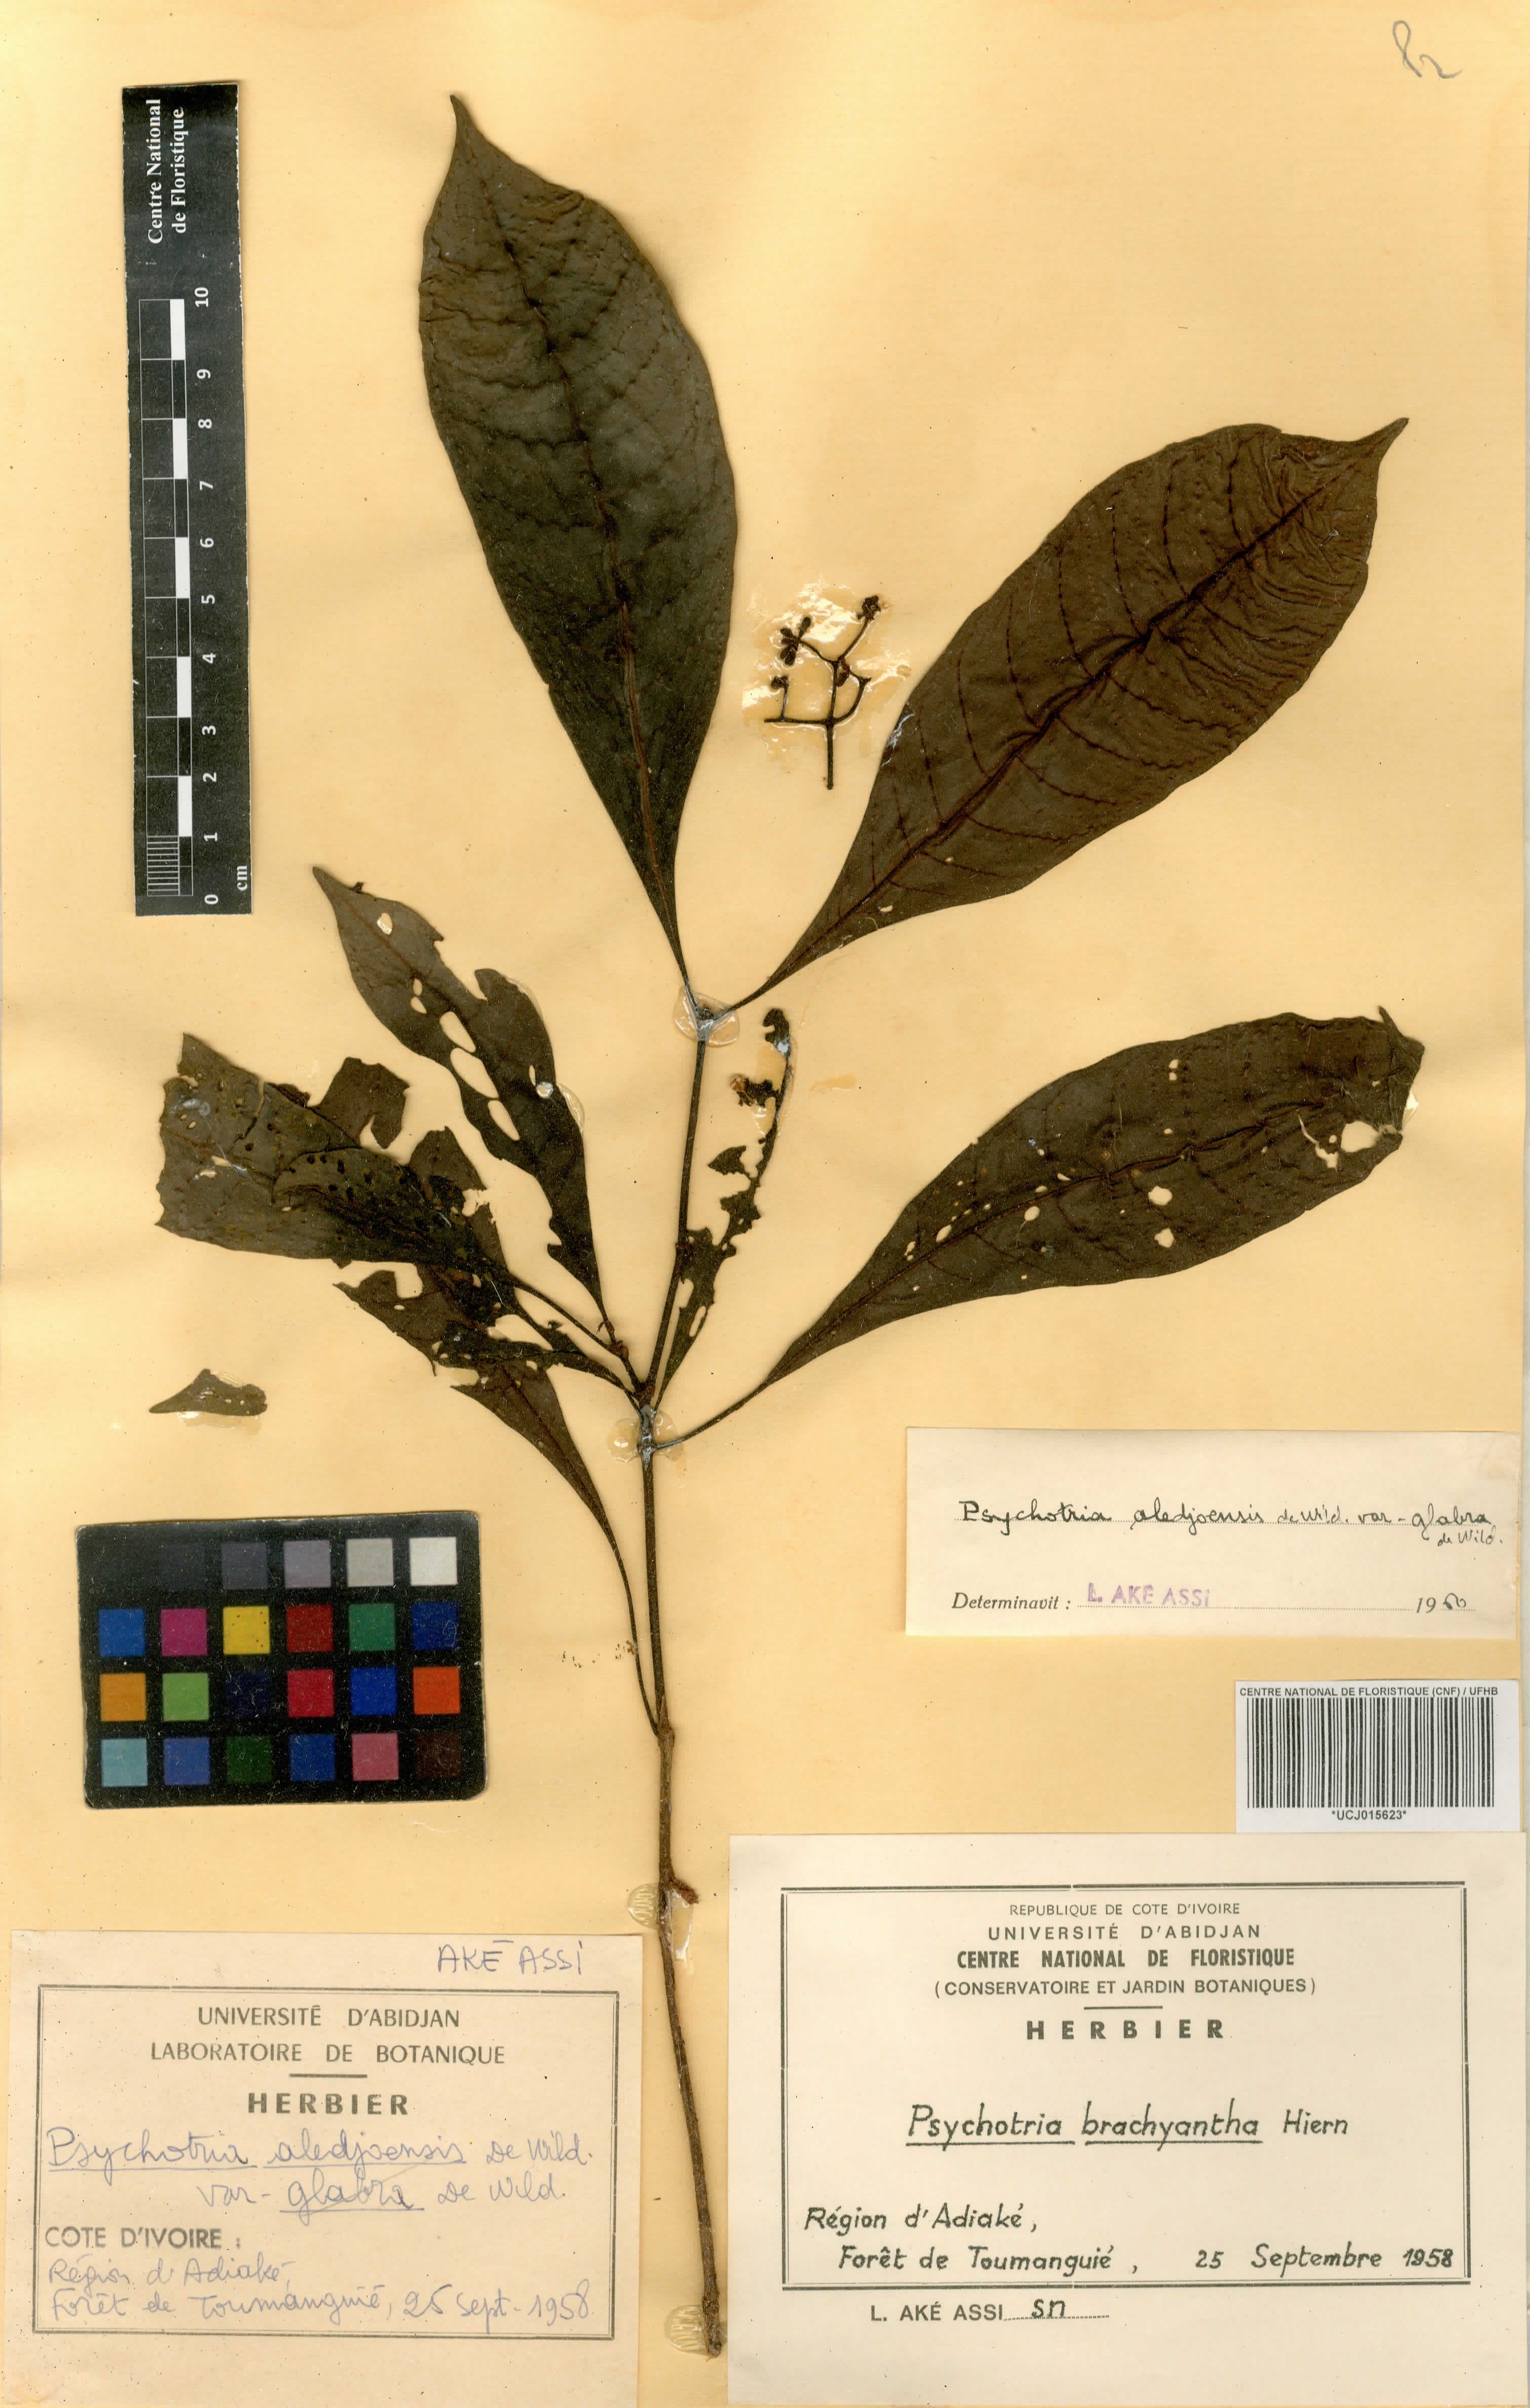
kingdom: Plantae
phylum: Tracheophyta
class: Magnoliopsida
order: Gentianales
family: Rubiaceae
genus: Psychotria
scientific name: Psychotria brachyantha
